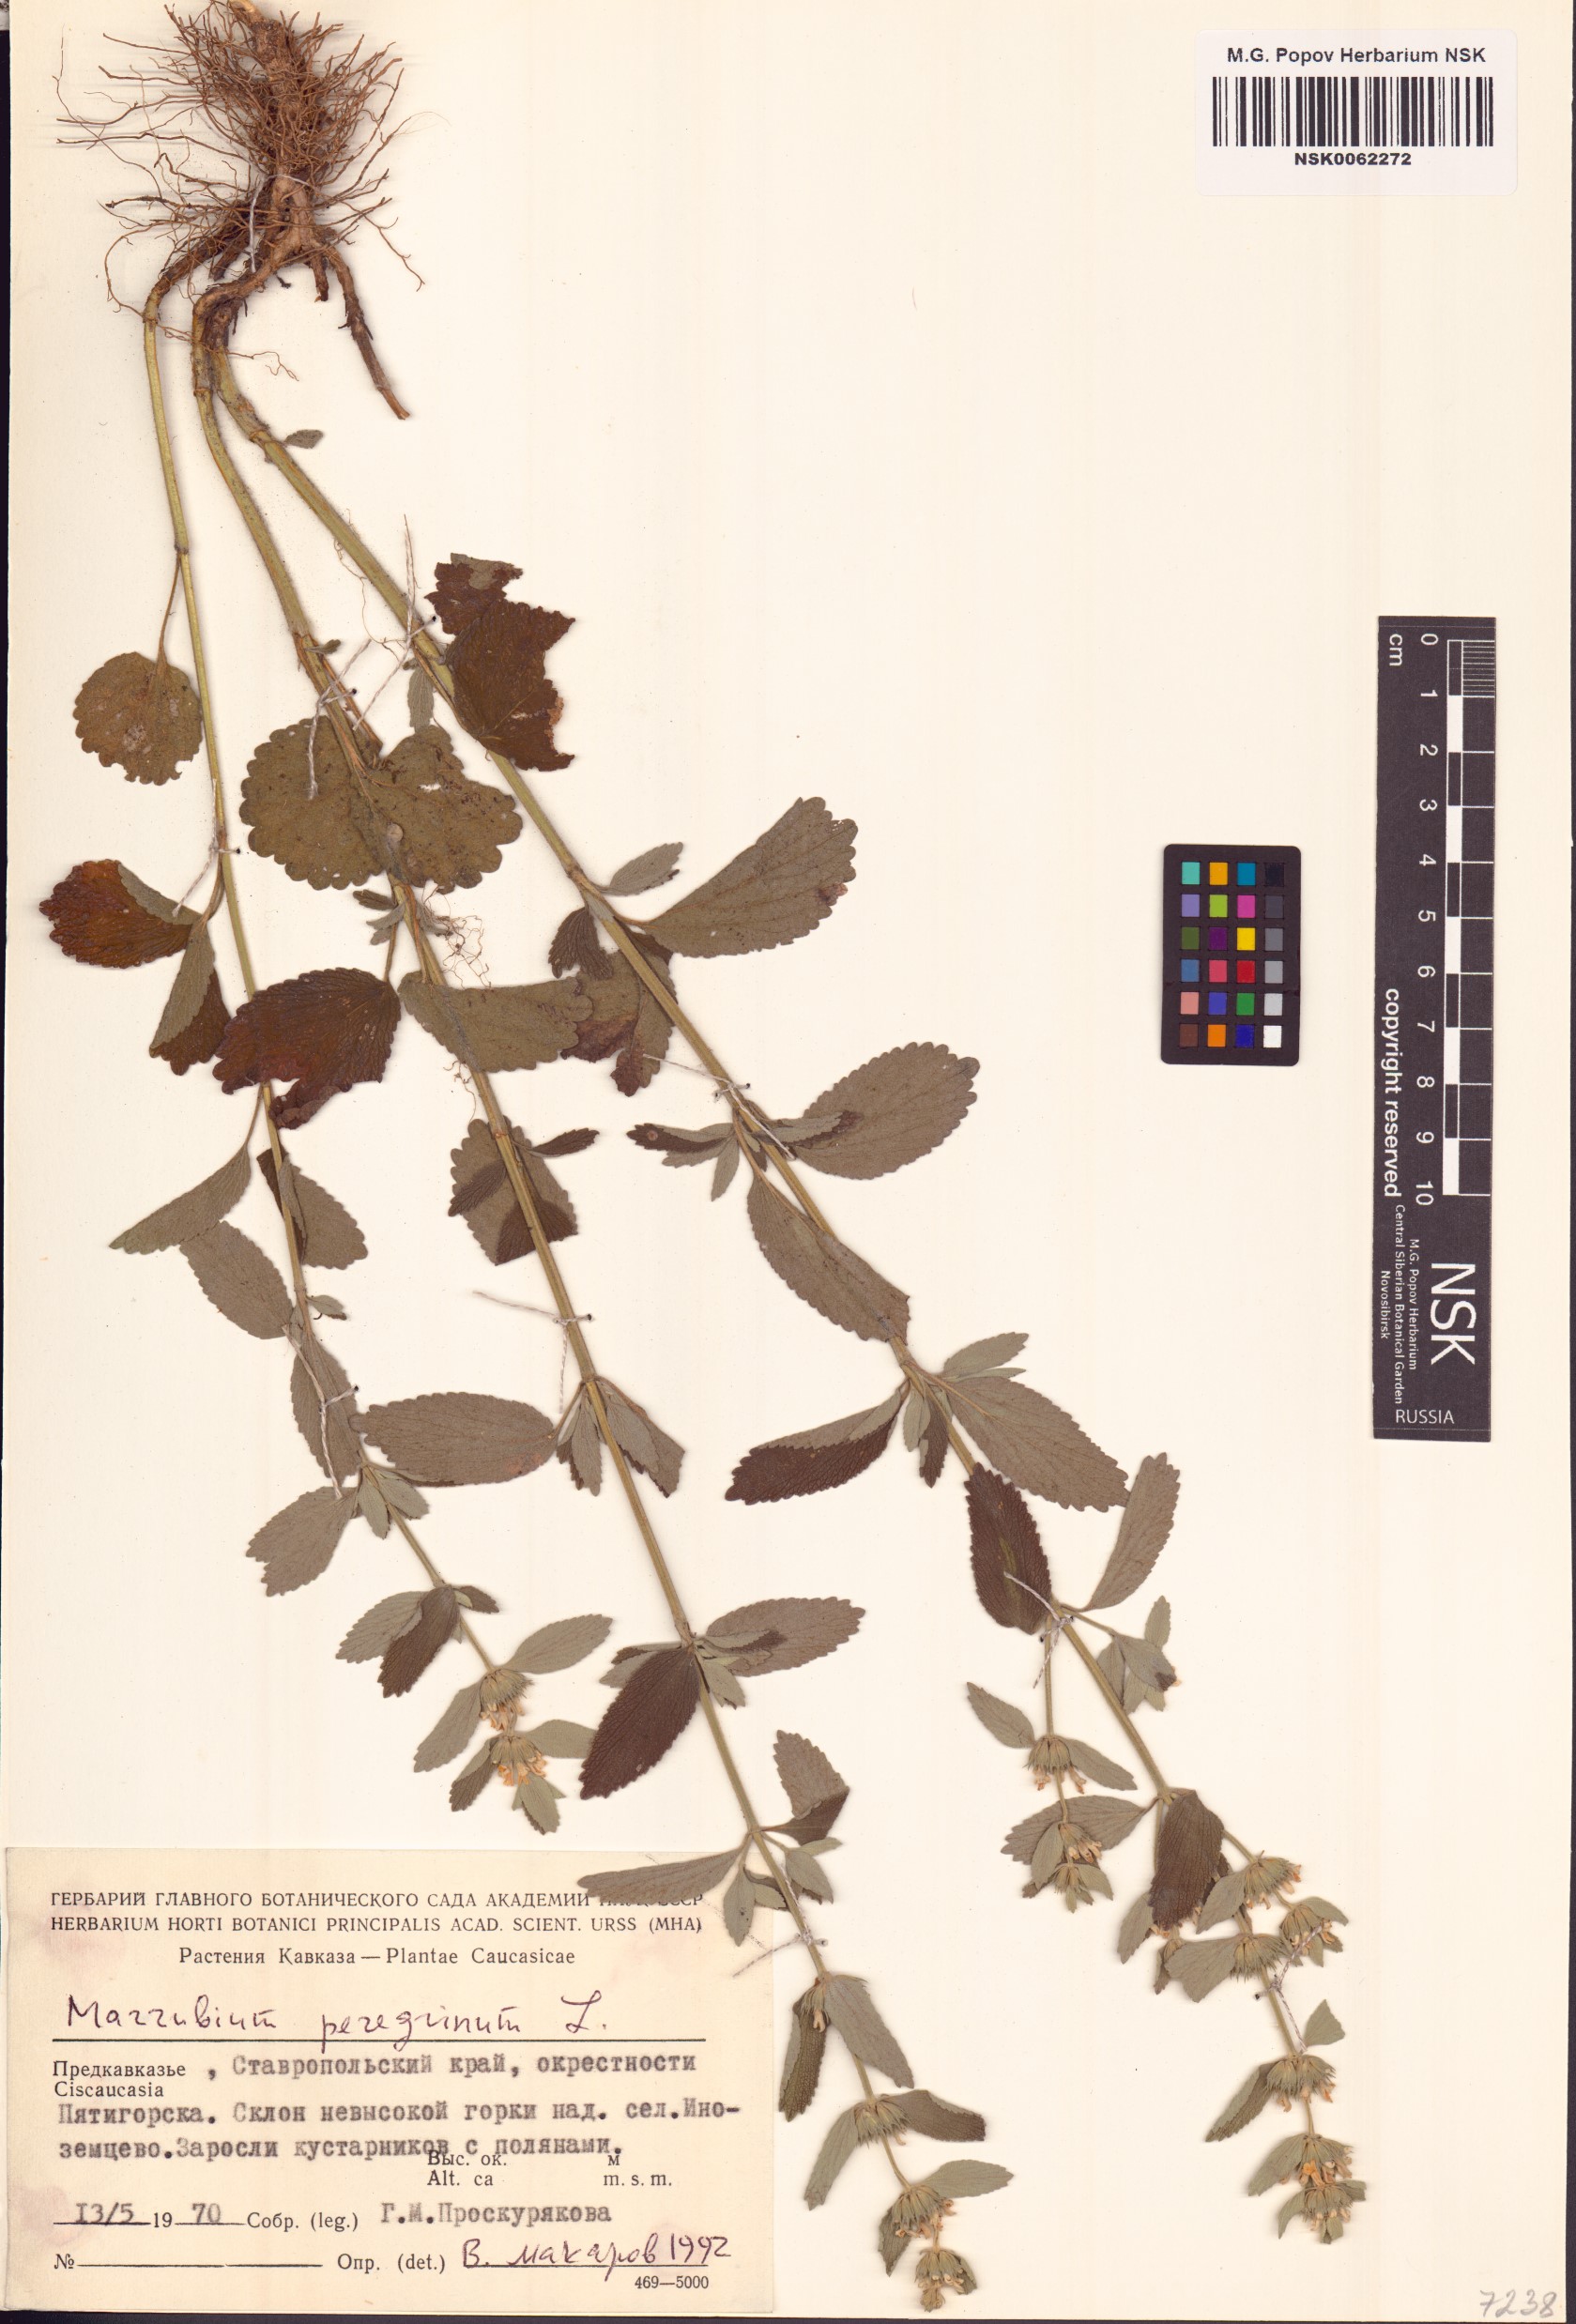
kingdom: Plantae
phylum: Tracheophyta
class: Magnoliopsida
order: Lamiales
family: Lamiaceae
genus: Marrubium
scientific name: Marrubium peregrinum
